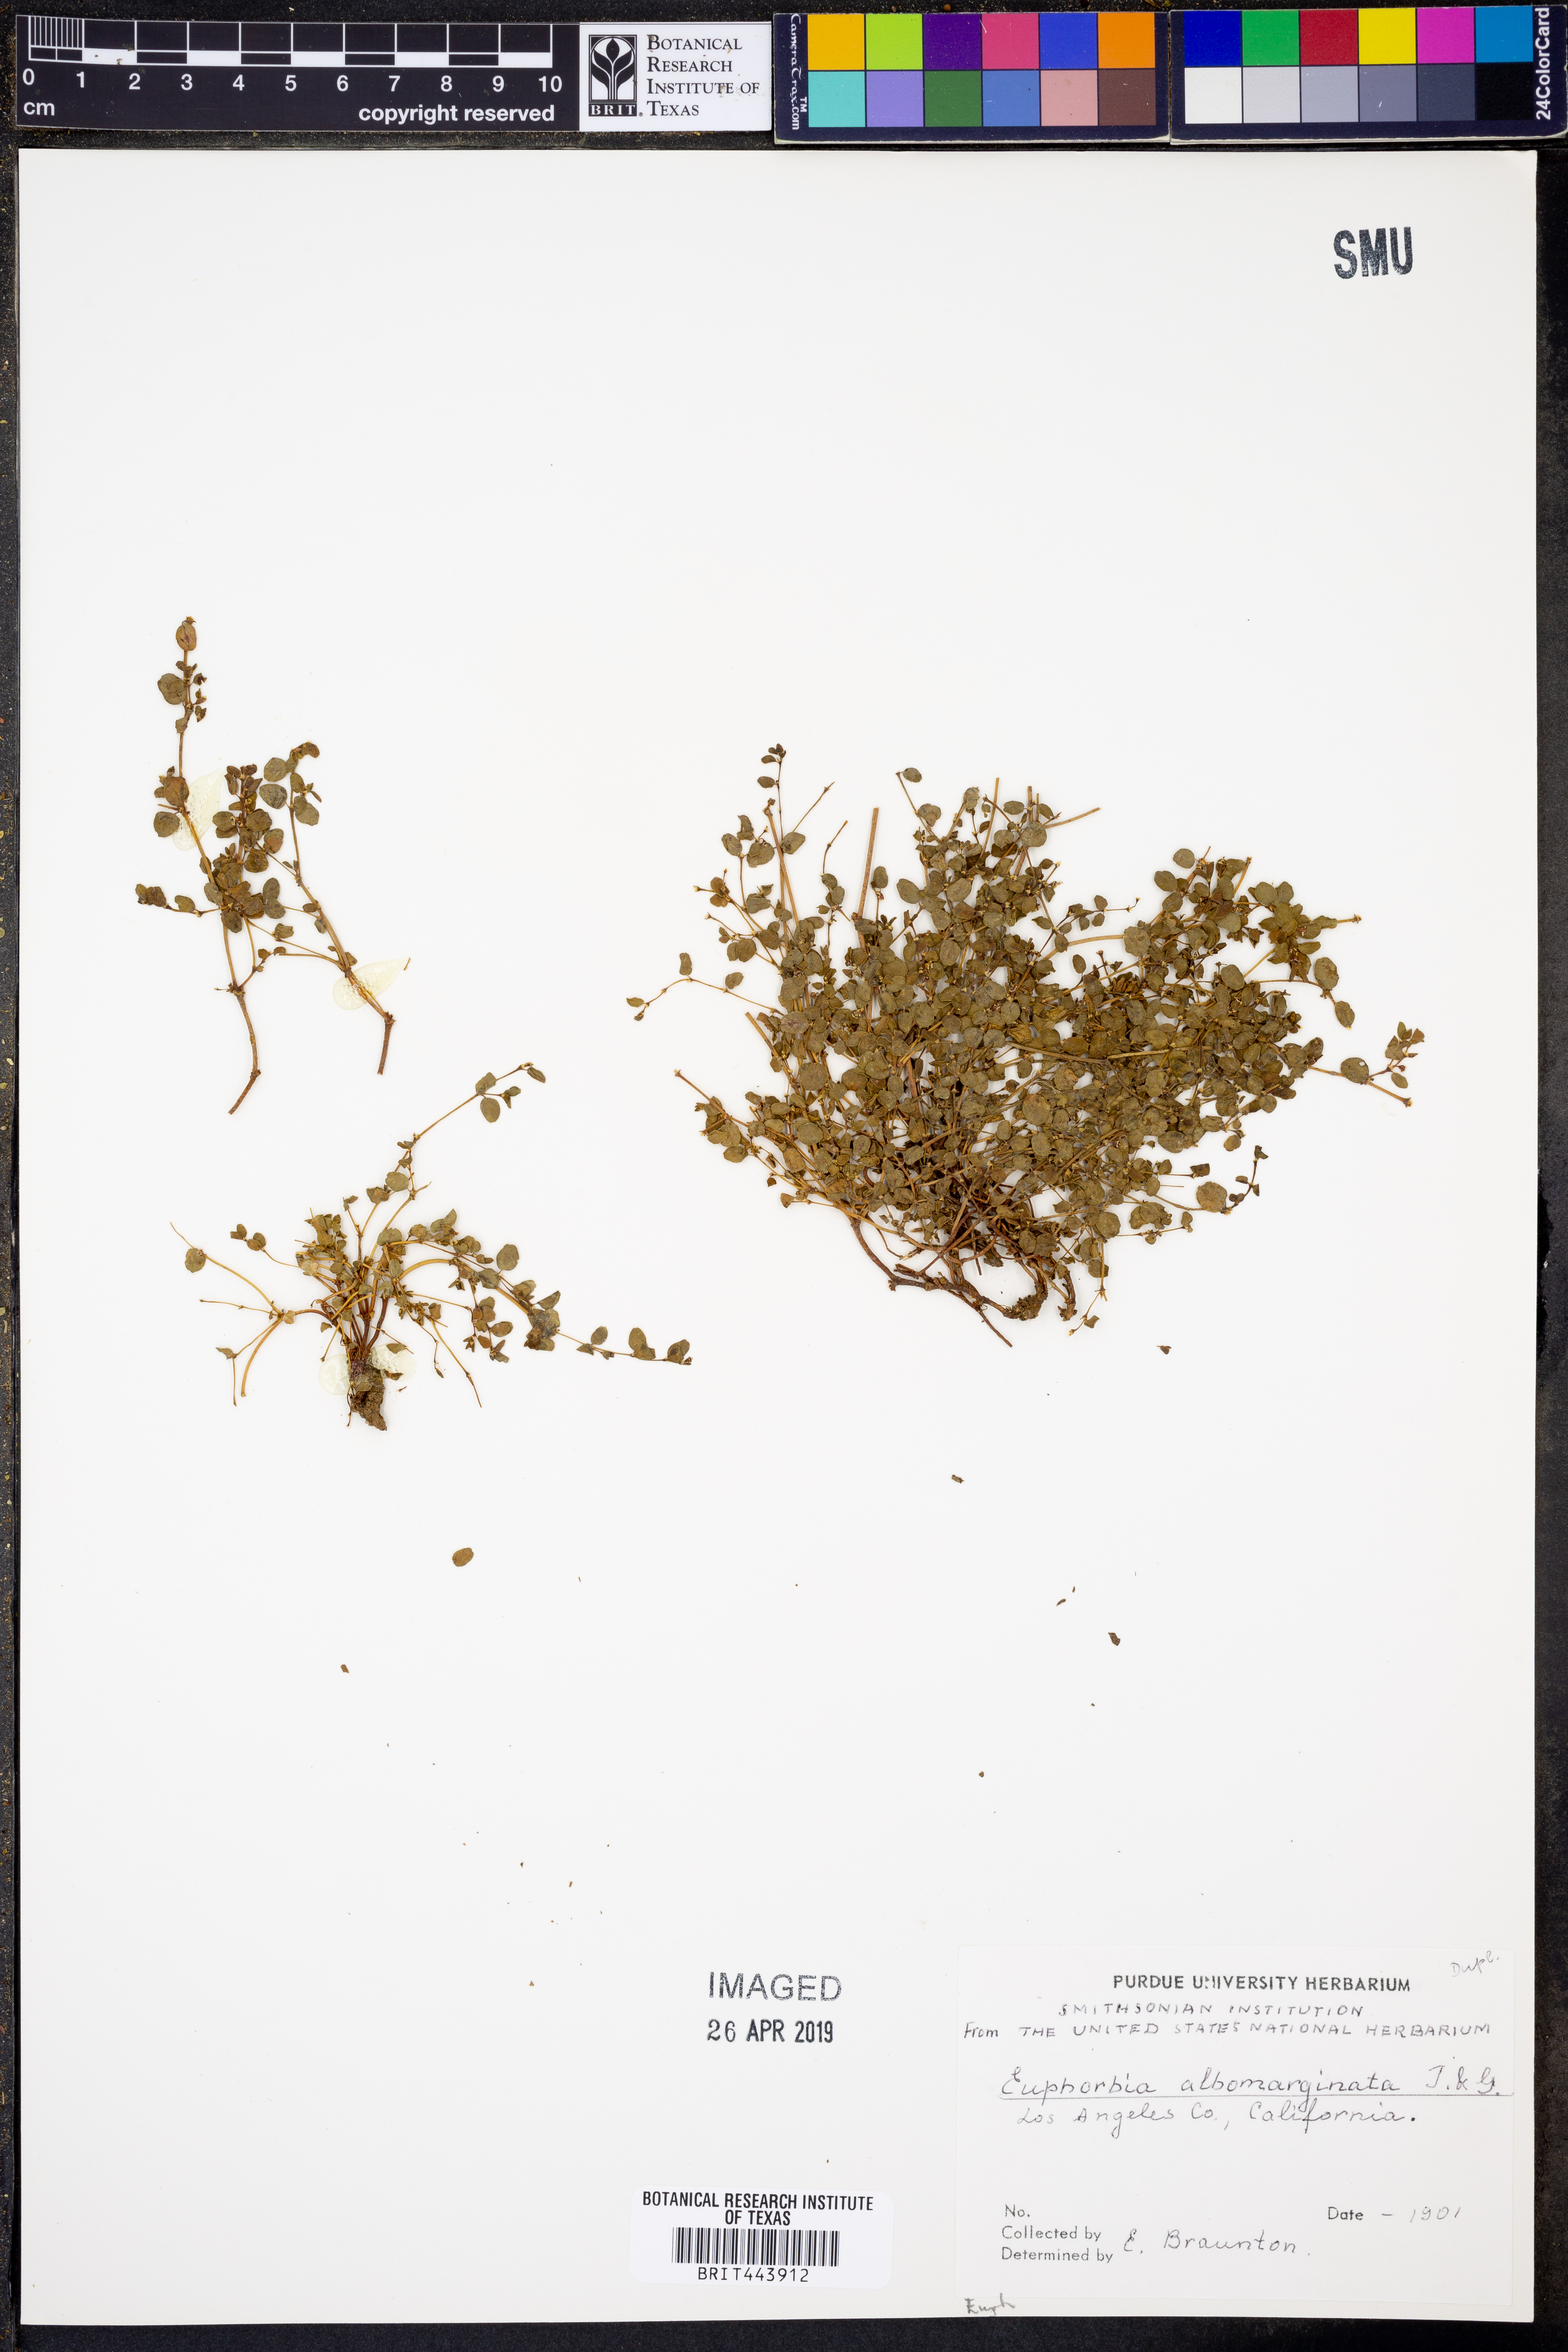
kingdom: Plantae
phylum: Tracheophyta
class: Magnoliopsida
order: Malpighiales
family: Euphorbiaceae
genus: Euphorbia
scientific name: Euphorbia albomarginata
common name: Whitemargin sandmat
